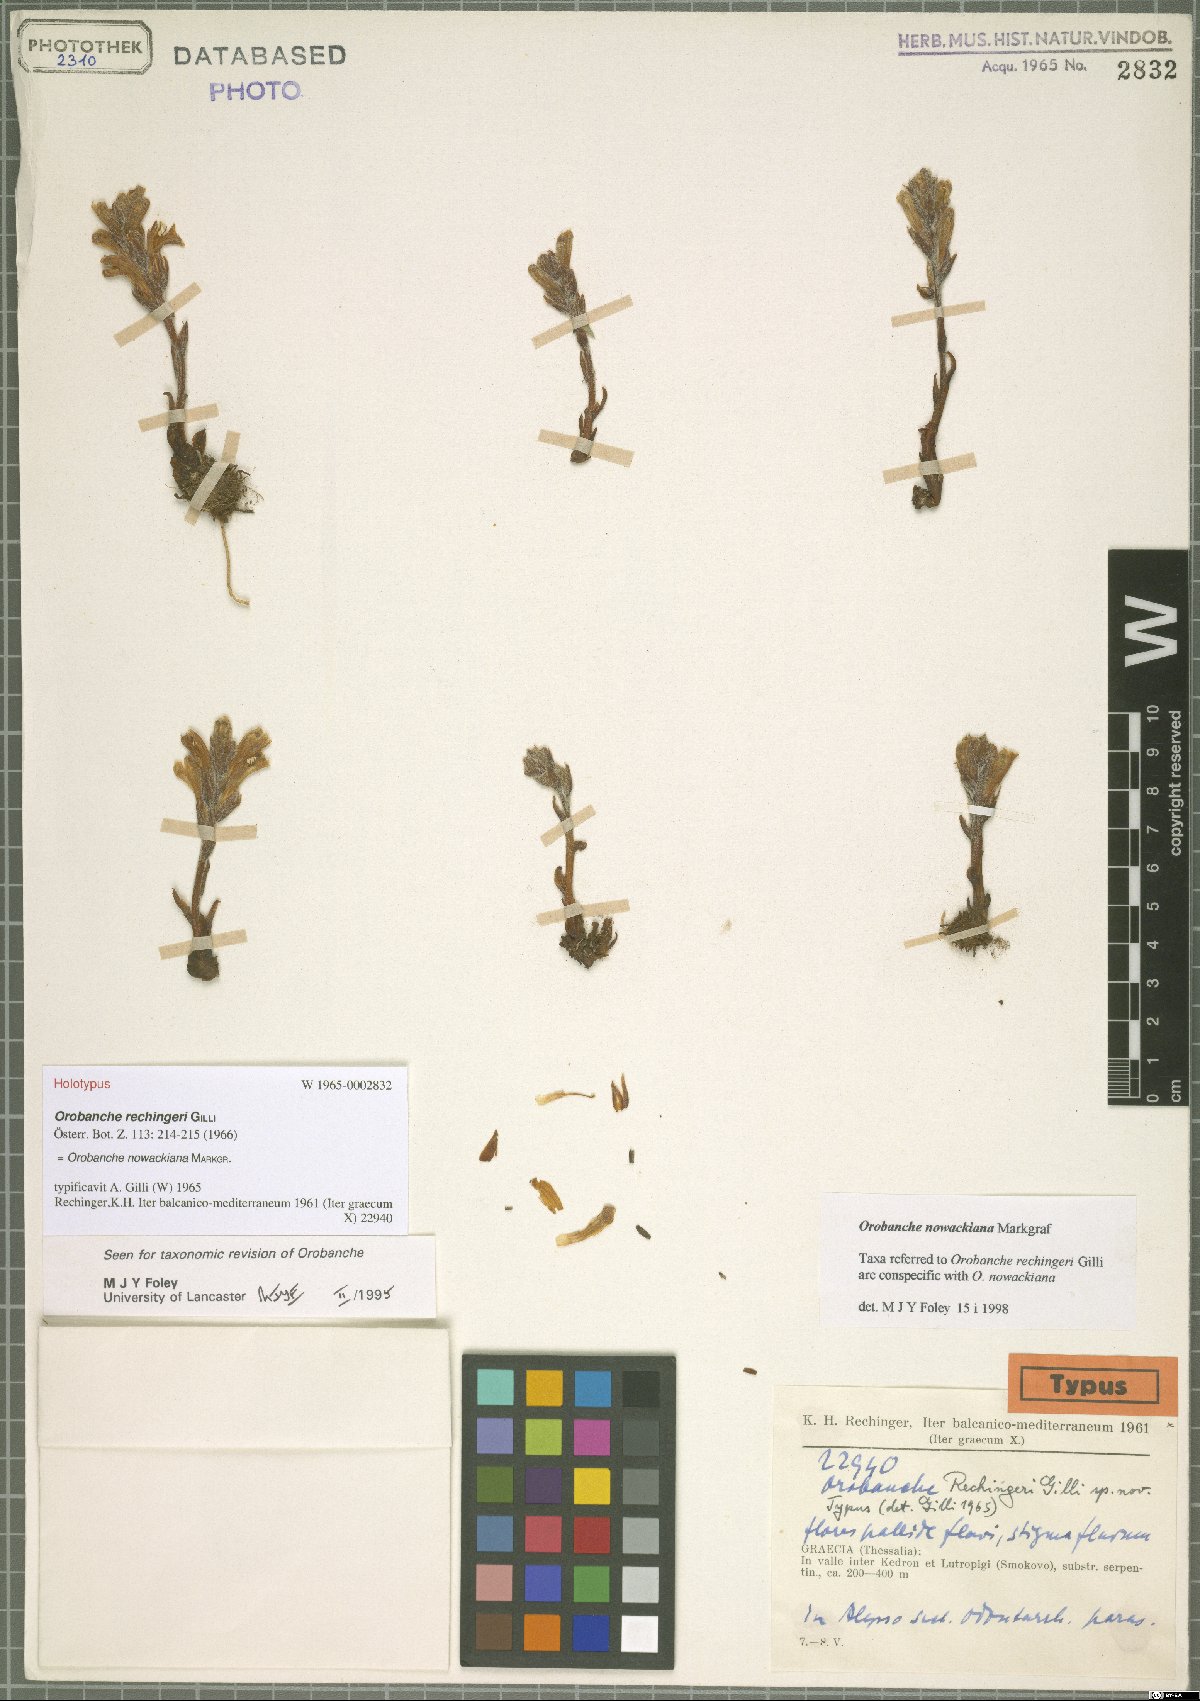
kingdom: Plantae
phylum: Tracheophyta
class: Magnoliopsida
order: Lamiales
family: Orobanchaceae
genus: Phelipanche
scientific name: Phelipanche nowackiana
